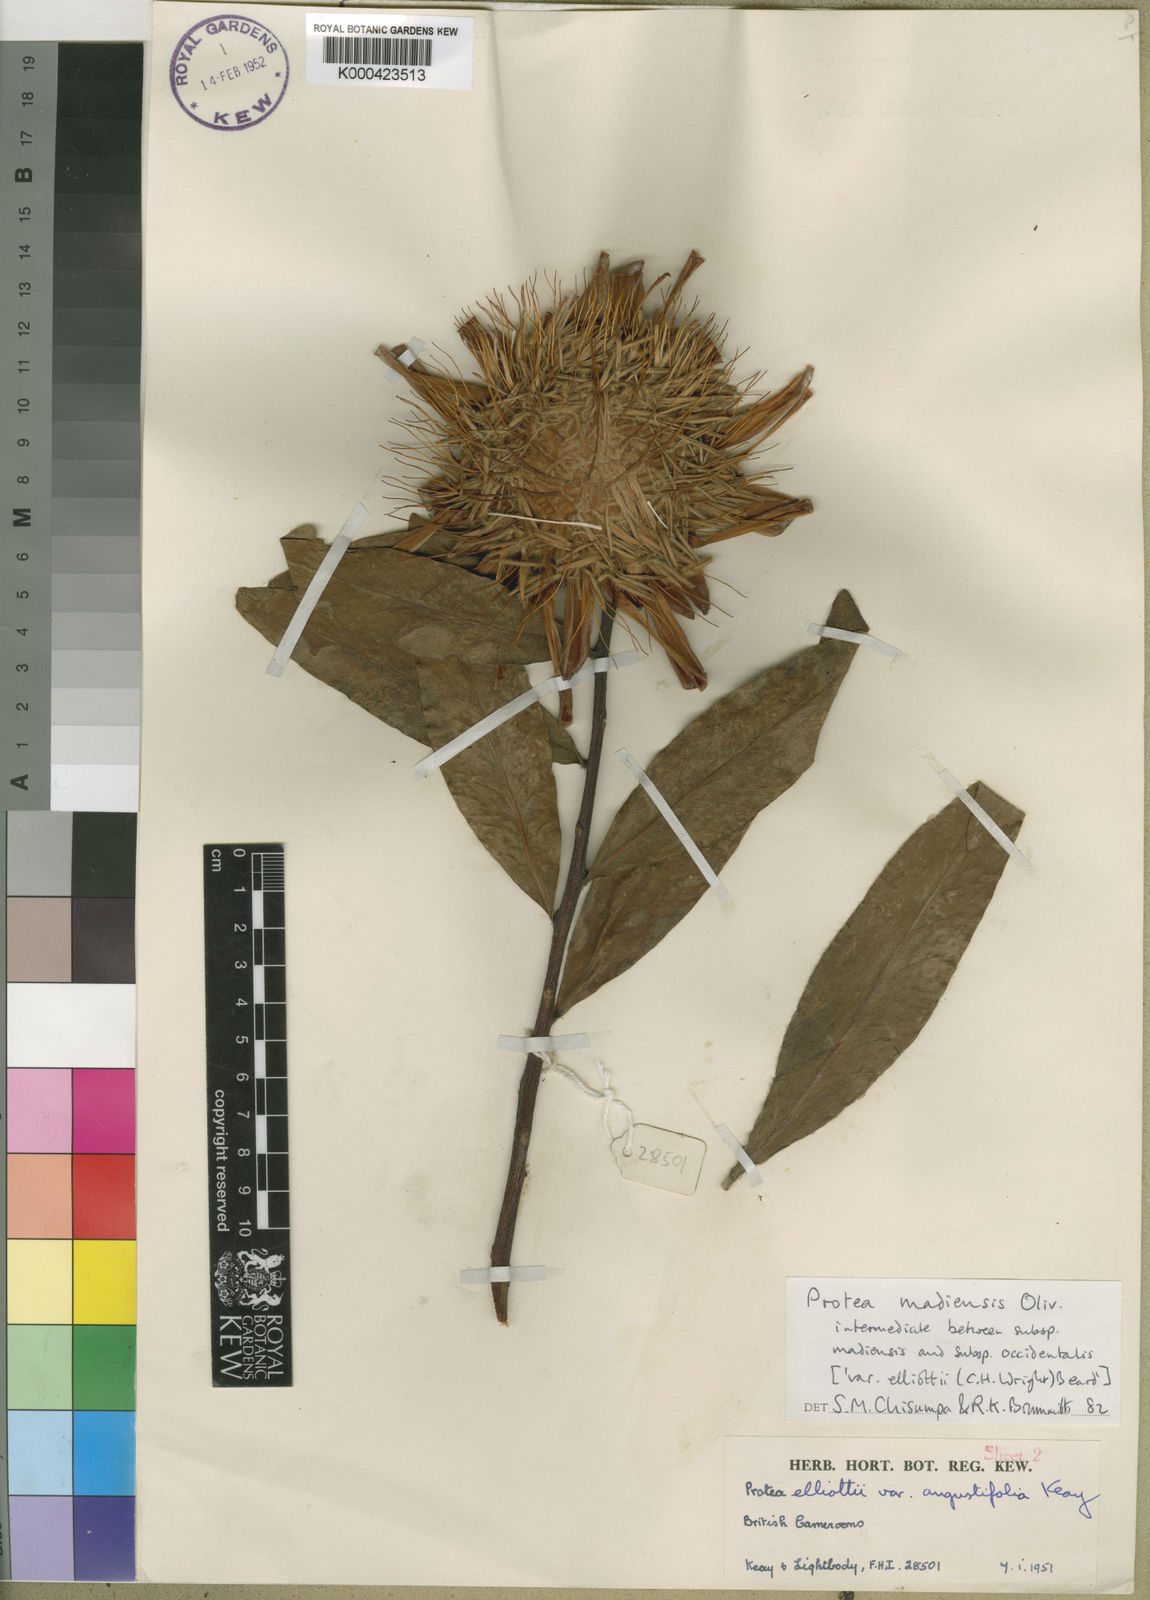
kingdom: Plantae
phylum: Tracheophyta
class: Magnoliopsida
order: Proteales
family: Proteaceae
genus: Protea
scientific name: Protea madiensis
